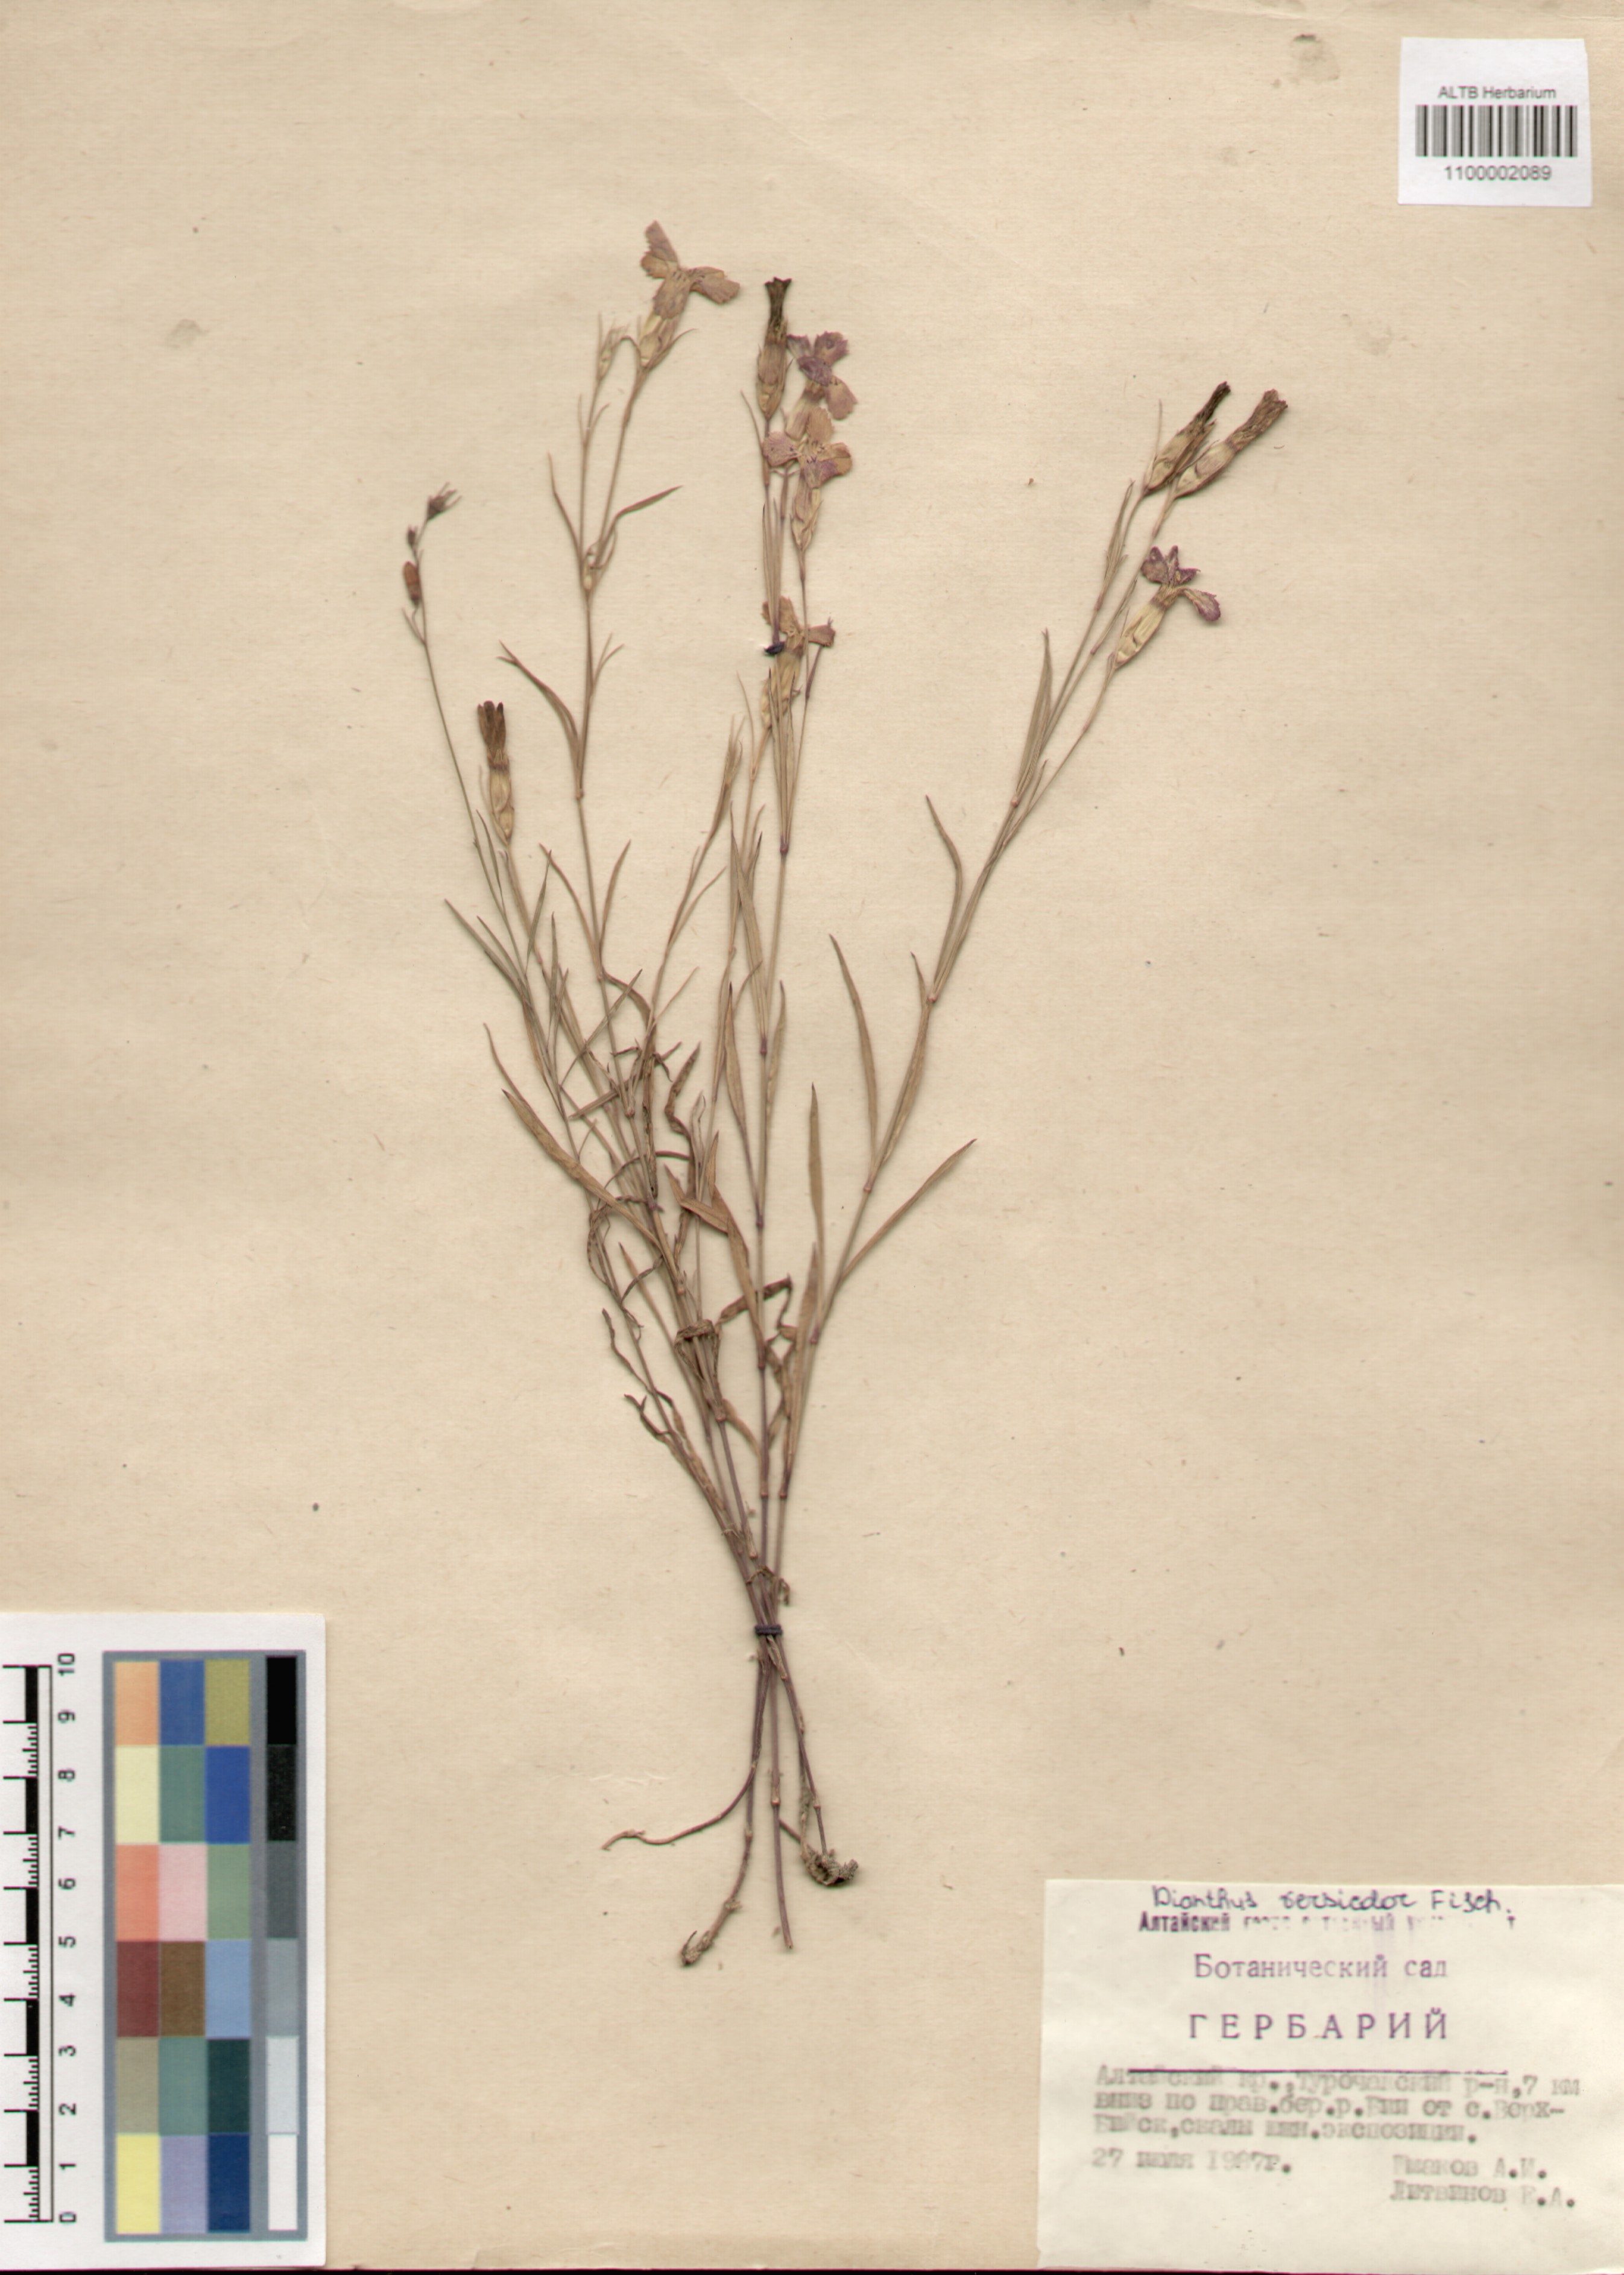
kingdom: Plantae
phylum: Tracheophyta
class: Magnoliopsida
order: Caryophyllales
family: Caryophyllaceae
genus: Dianthus
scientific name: Dianthus chinensis
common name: Rainbow pink
